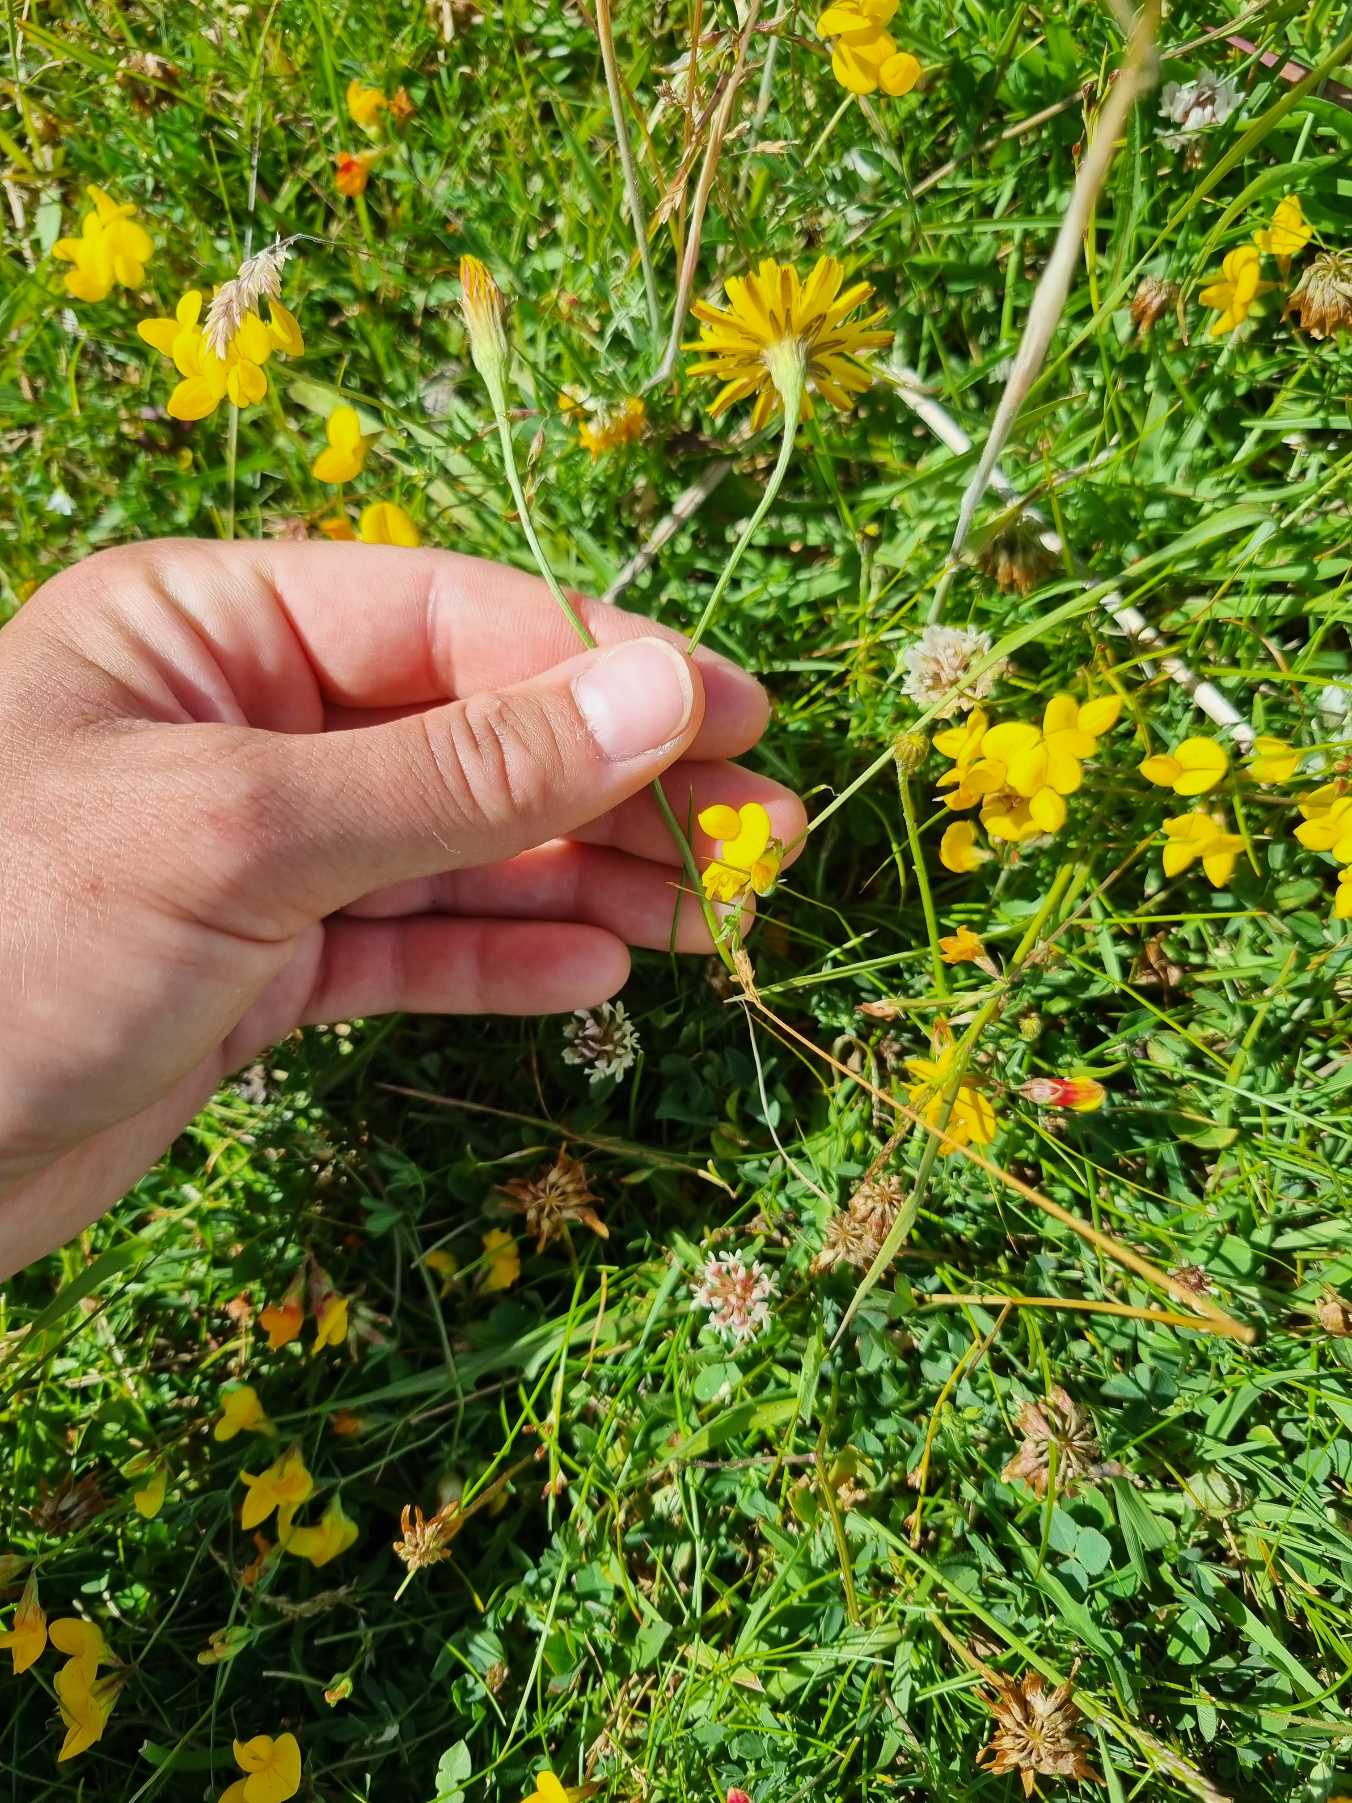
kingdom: Plantae
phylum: Tracheophyta
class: Magnoliopsida
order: Asterales
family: Asteraceae
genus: Scorzoneroides
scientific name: Scorzoneroides autumnalis
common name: Høst-borst
